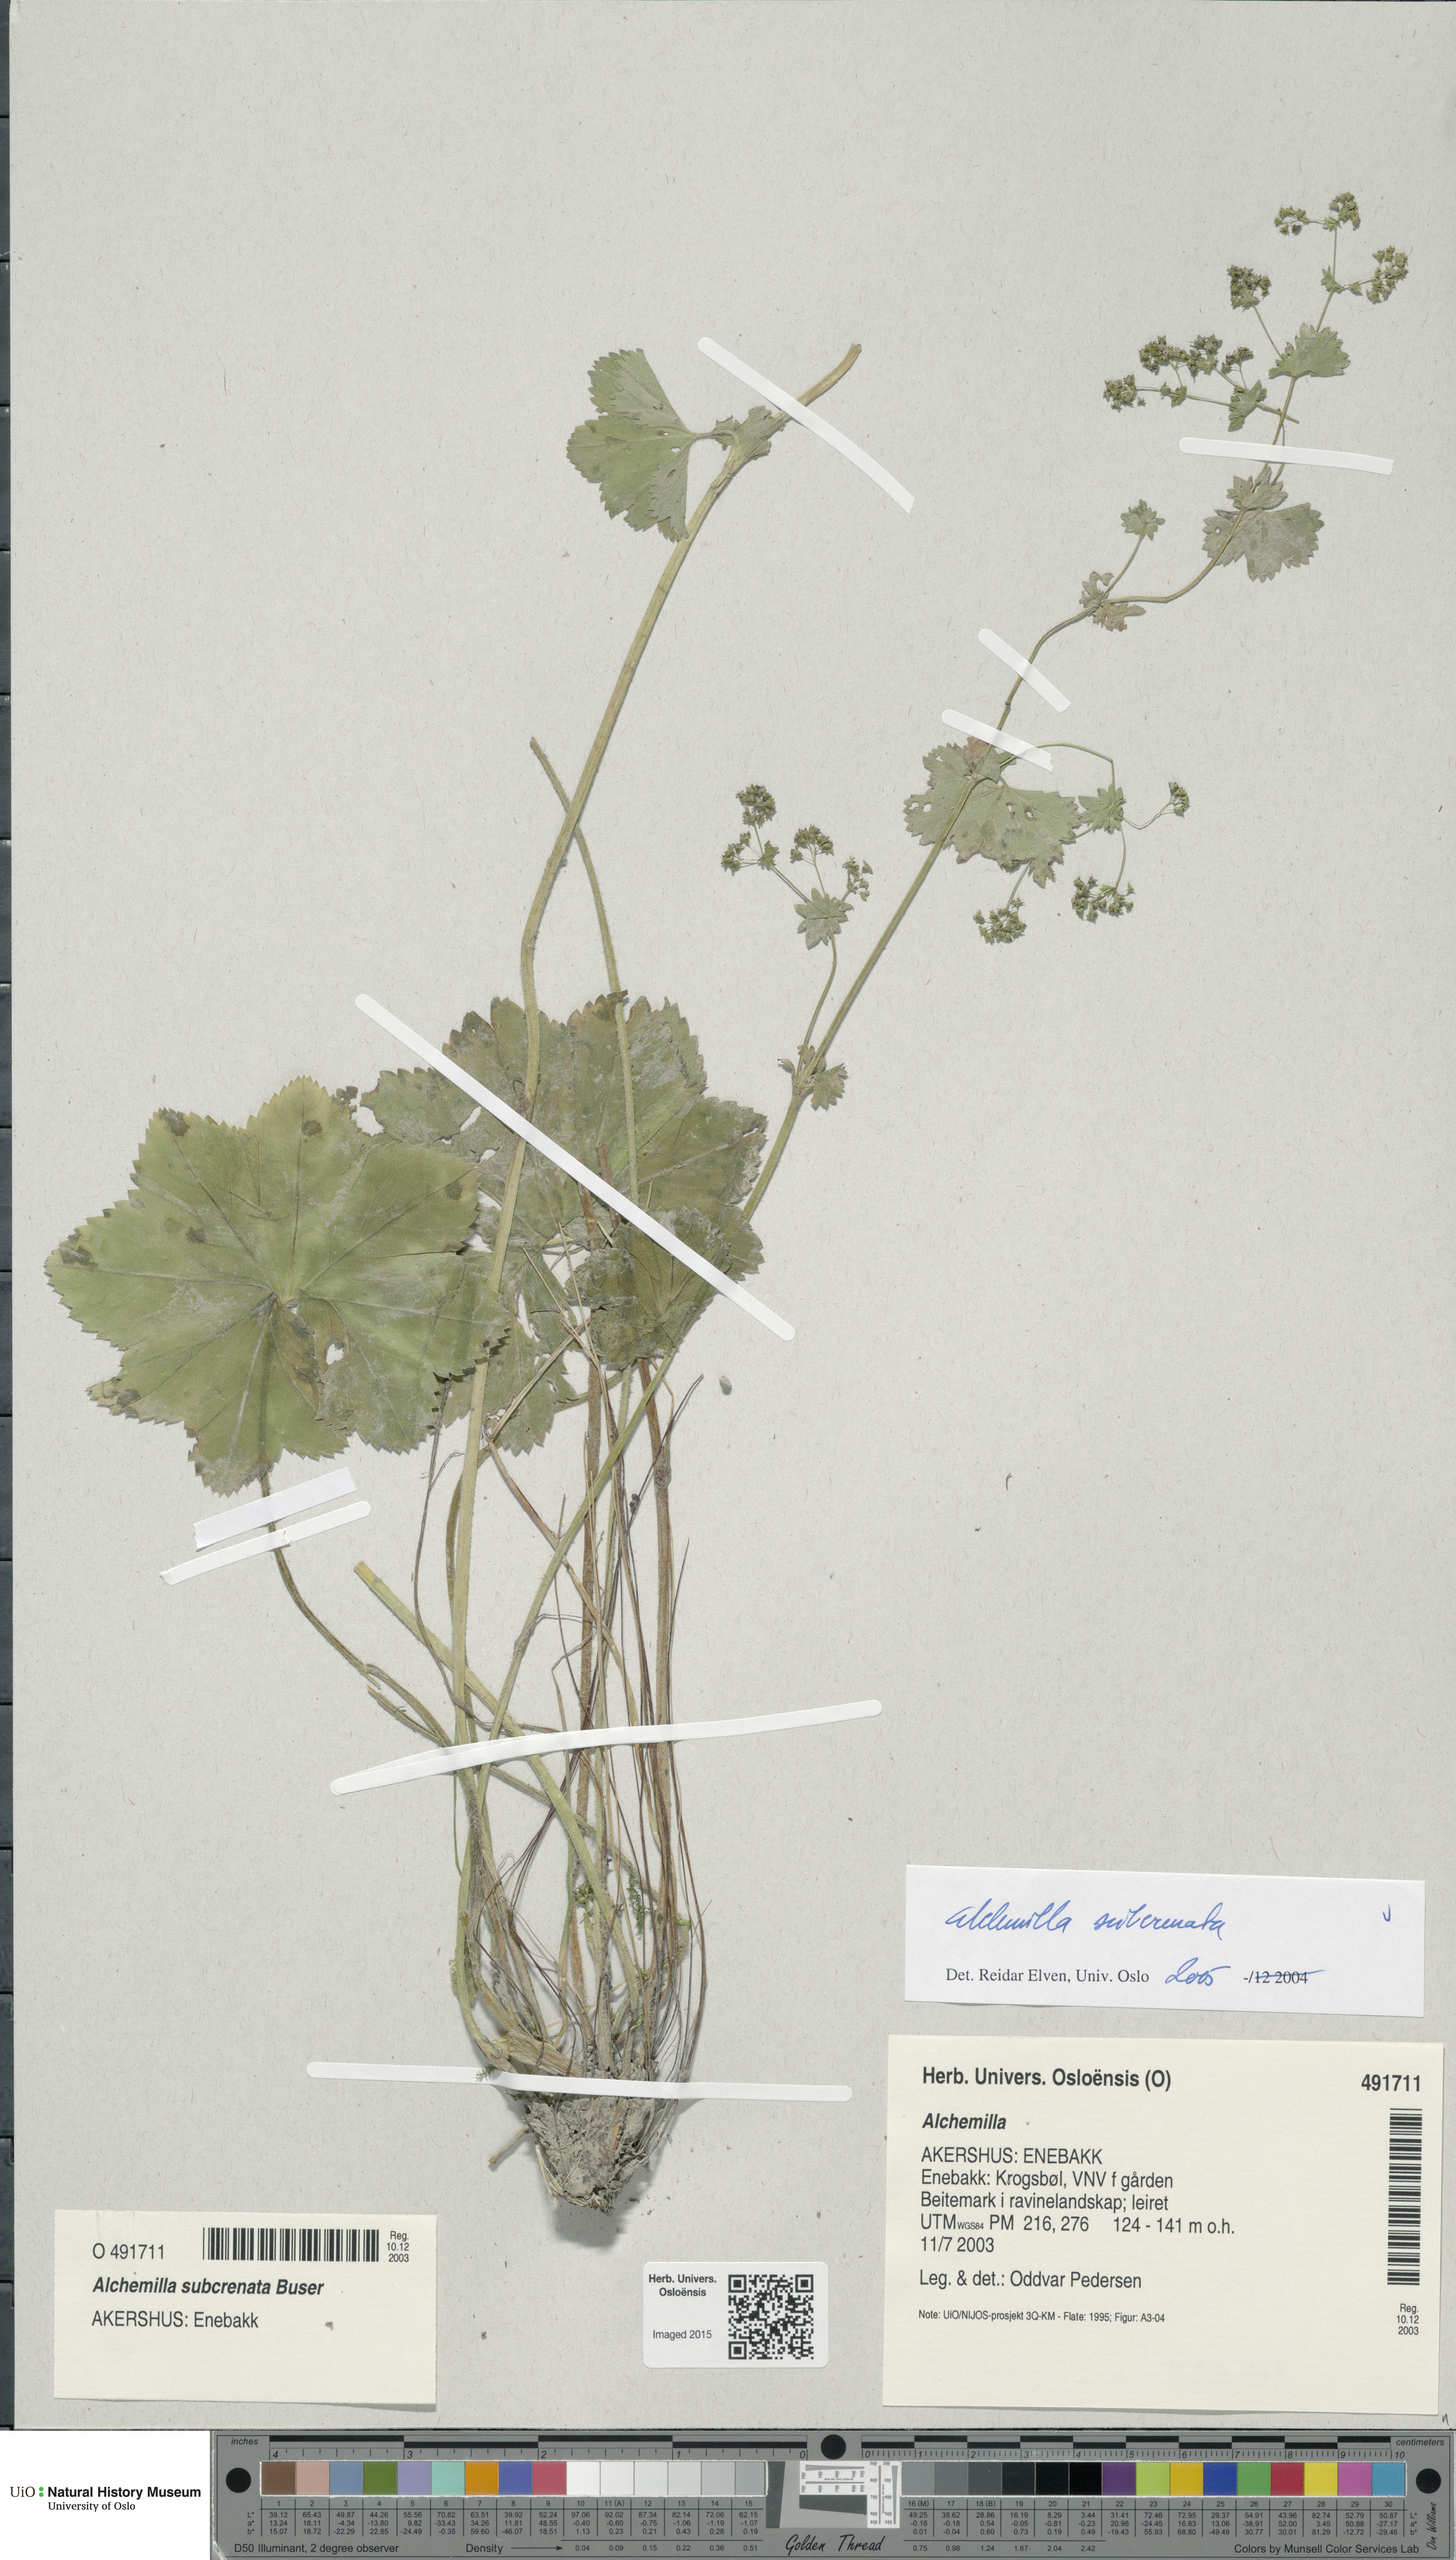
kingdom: Plantae
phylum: Tracheophyta
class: Magnoliopsida
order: Rosales
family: Rosaceae
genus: Alchemilla
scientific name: Alchemilla subcrenata
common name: Broadtooth lady's mantle
